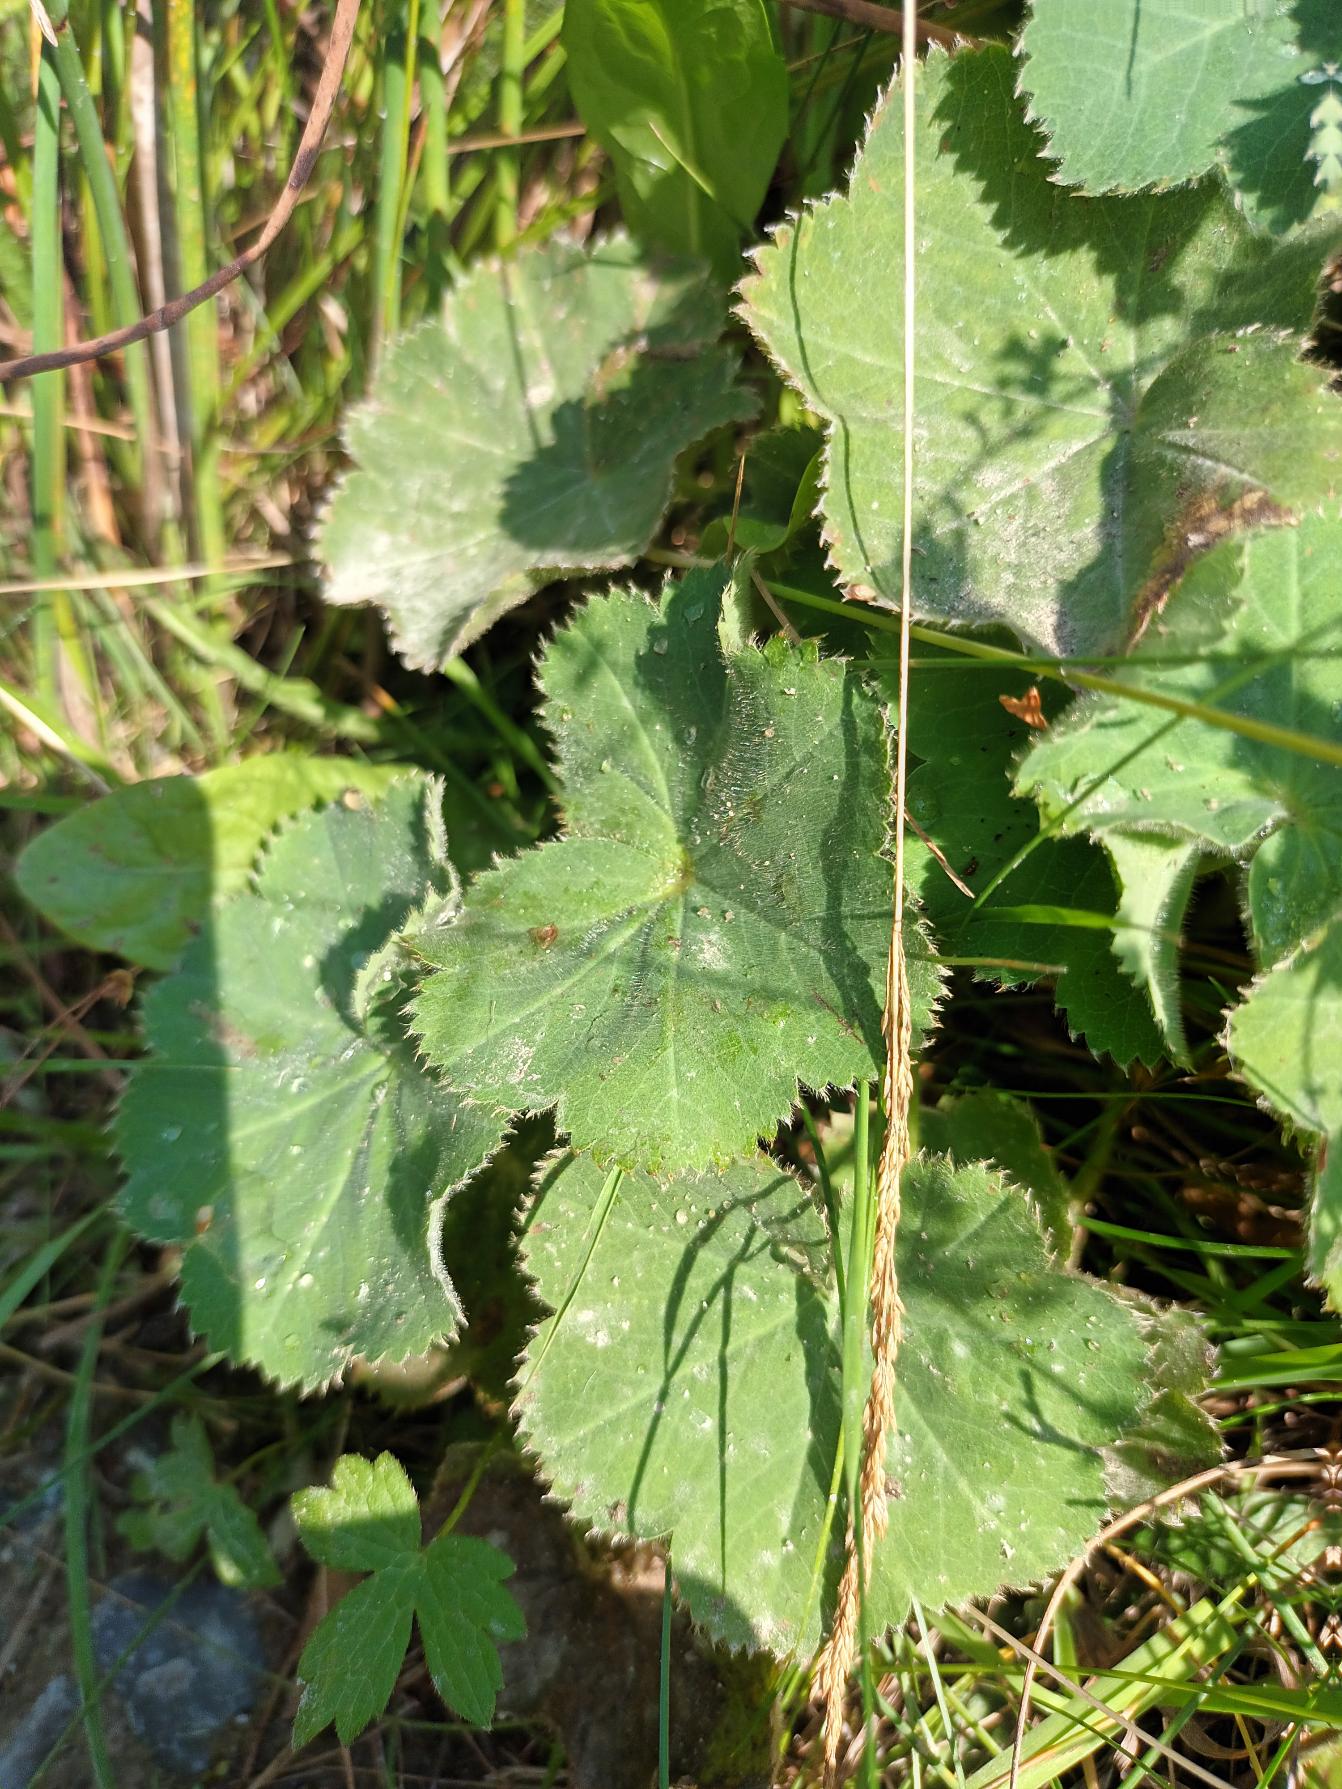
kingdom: Plantae
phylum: Tracheophyta
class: Magnoliopsida
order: Rosales
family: Rosaceae
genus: Alchemilla
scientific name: Alchemilla mollis
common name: Lådden løvefod
